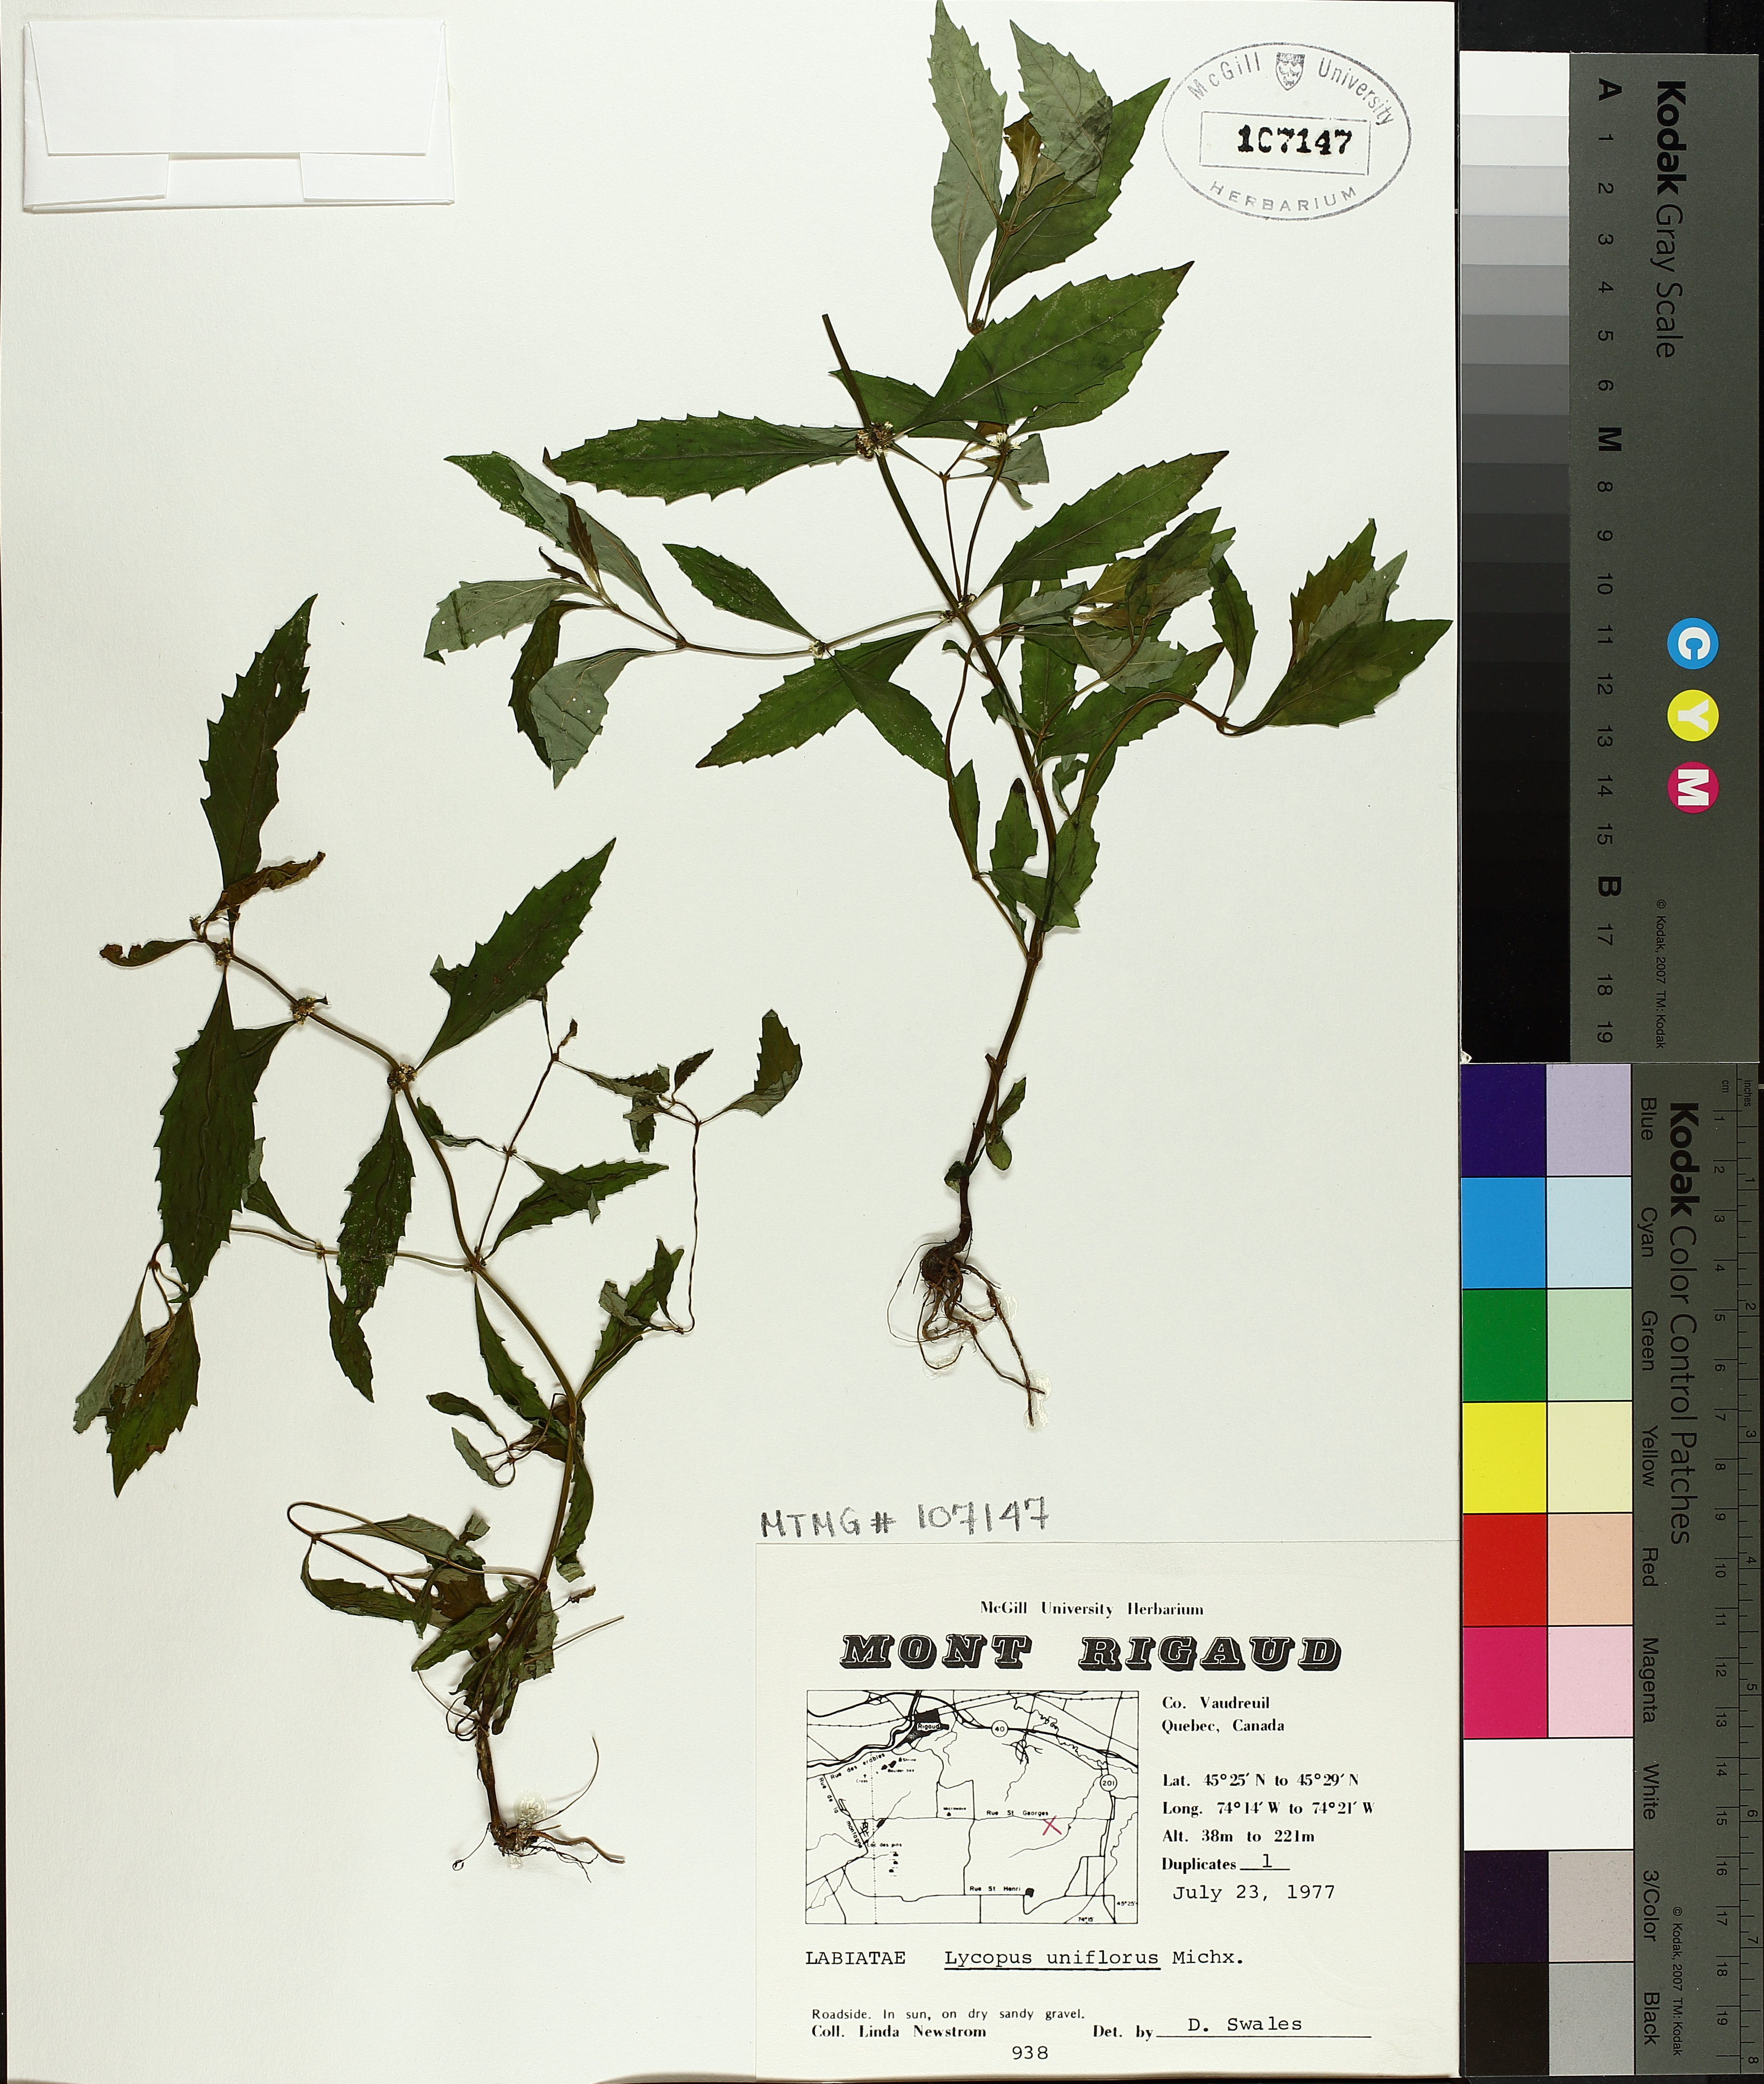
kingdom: Plantae
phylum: Tracheophyta
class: Magnoliopsida
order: Lamiales
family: Lamiaceae
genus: Lycopus
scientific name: Lycopus uniflorus
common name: Northern bugleweed
